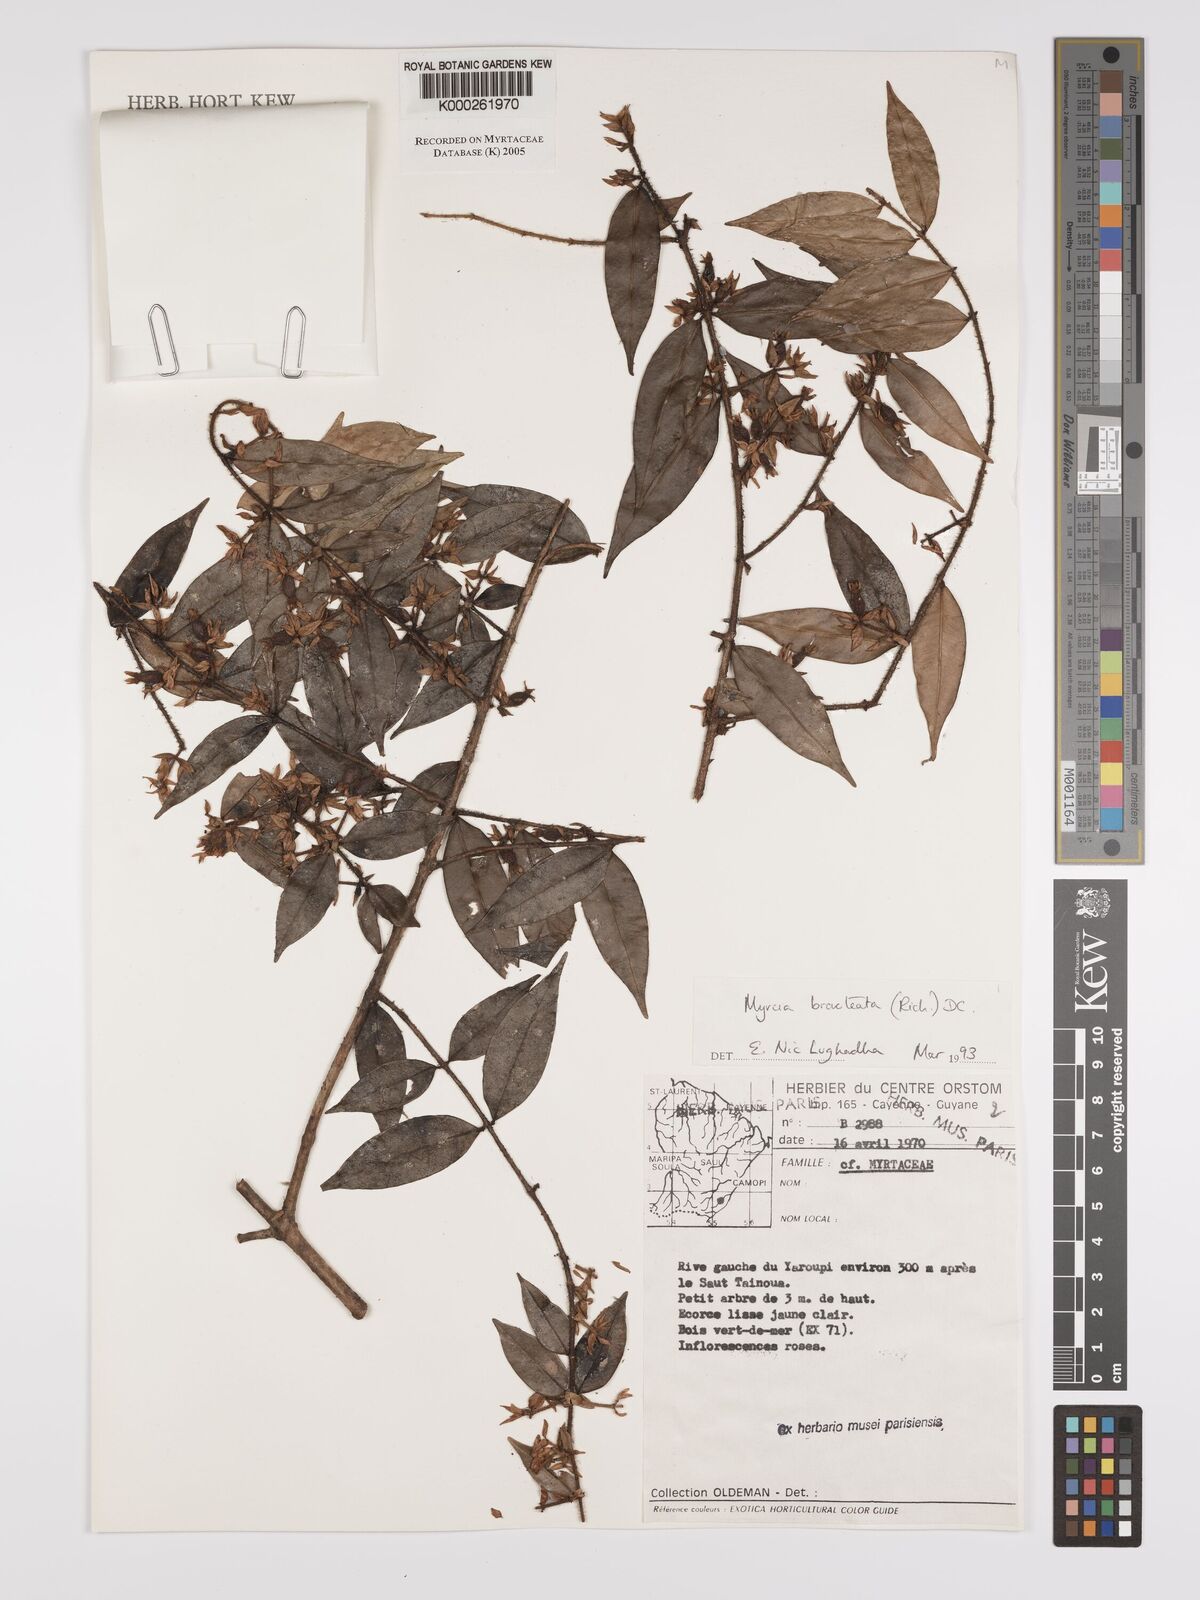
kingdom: Plantae
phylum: Tracheophyta
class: Magnoliopsida
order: Myrtales
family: Myrtaceae
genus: Myrcia
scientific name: Myrcia bracteata
